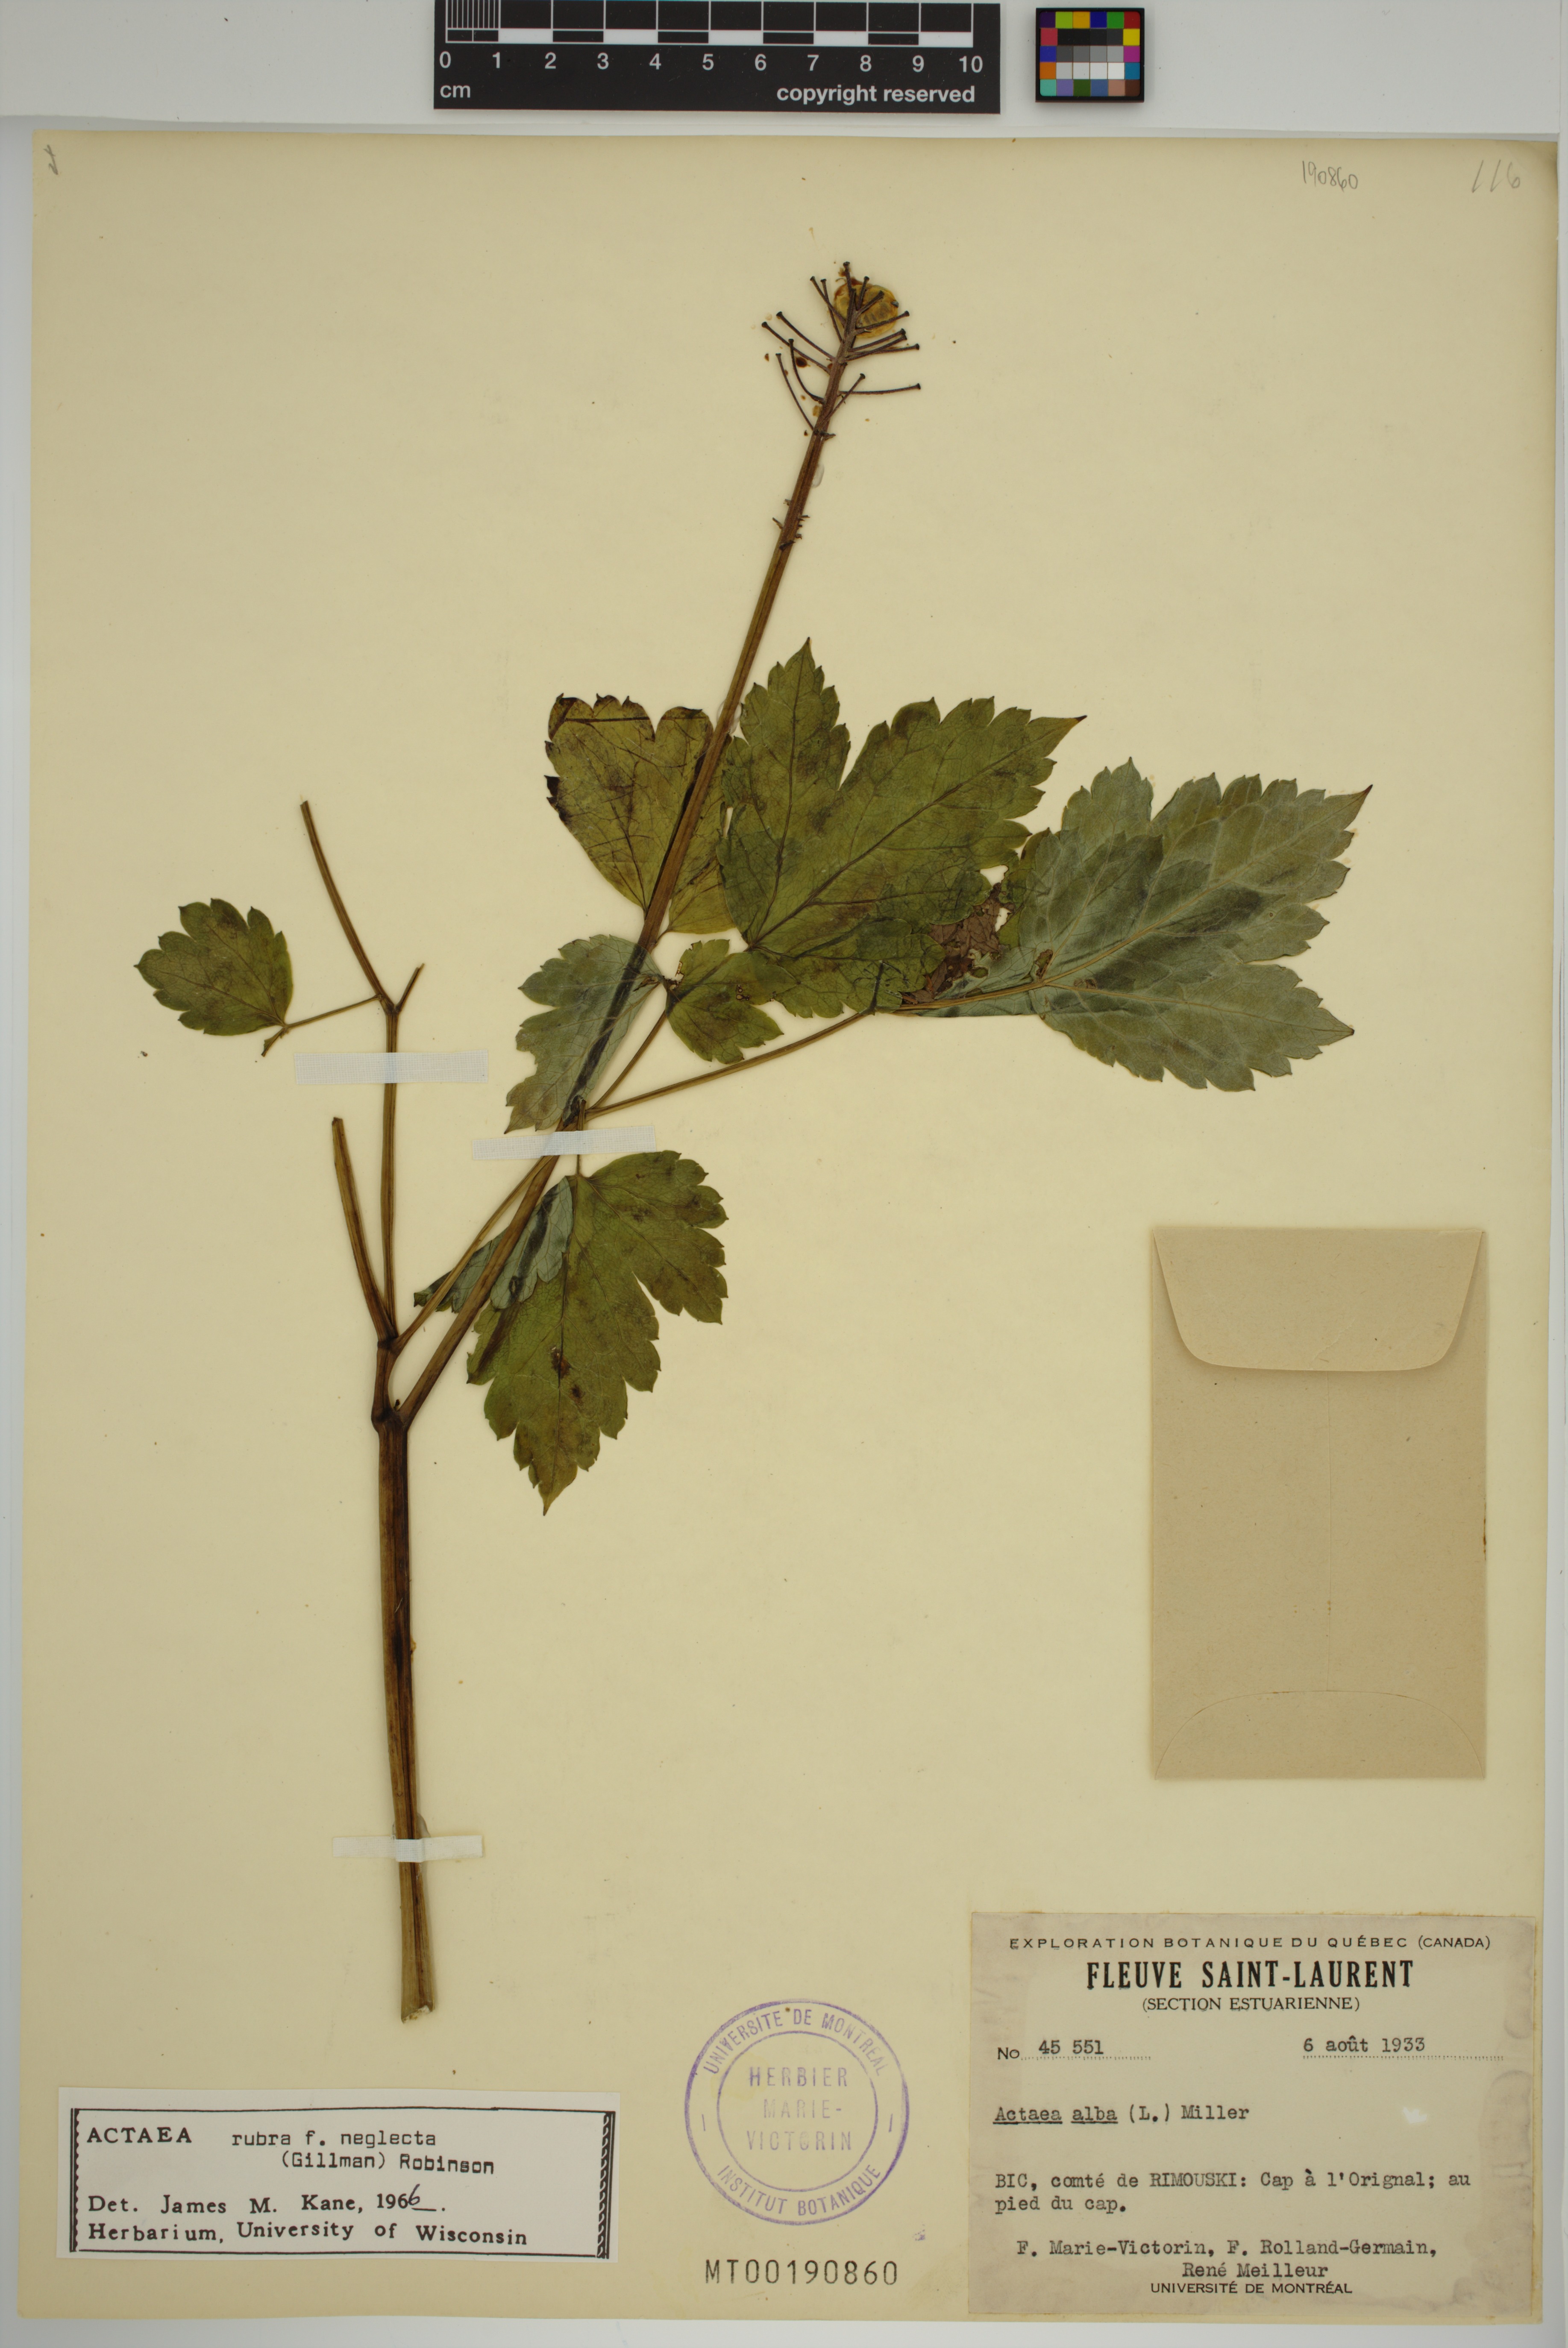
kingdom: Plantae
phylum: Tracheophyta
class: Magnoliopsida
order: Ranunculales
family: Ranunculaceae
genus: Actaea
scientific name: Actaea rubra
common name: Red baneberry
